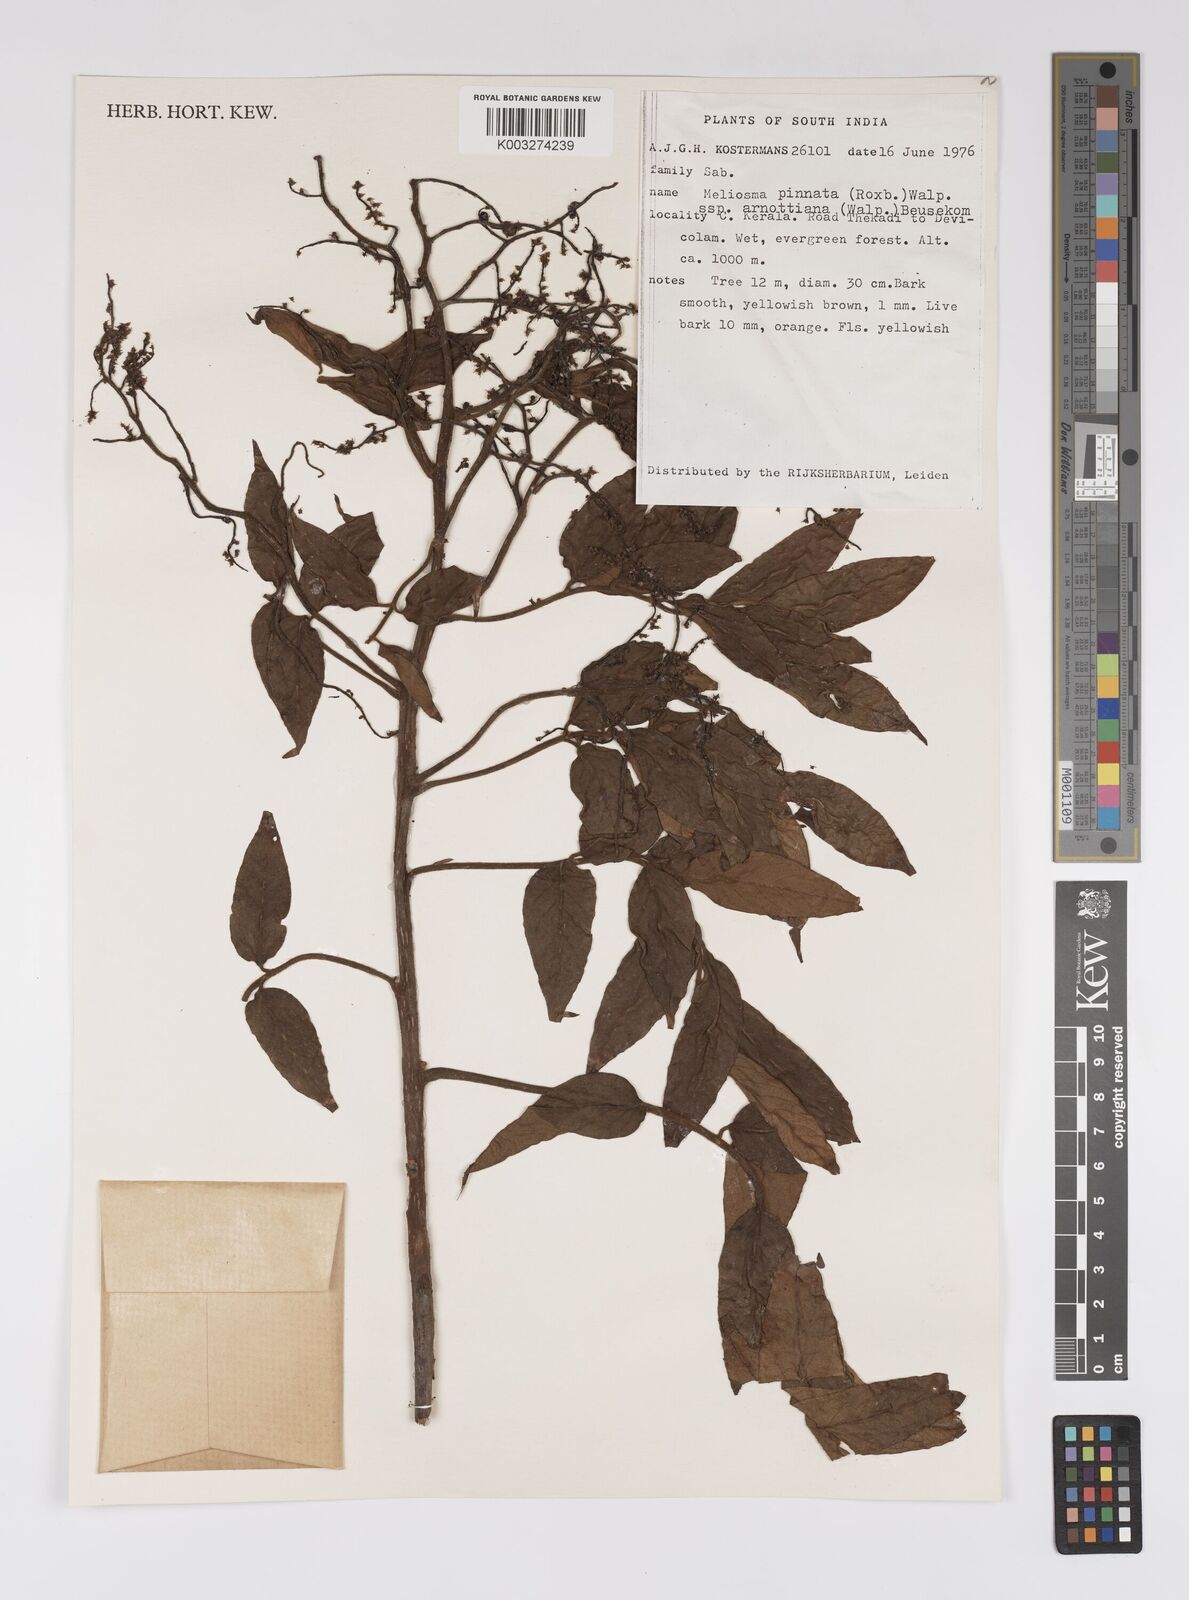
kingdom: Plantae
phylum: Tracheophyta
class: Magnoliopsida
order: Proteales
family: Sabiaceae
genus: Meliosma
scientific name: Meliosma rhoifolia
